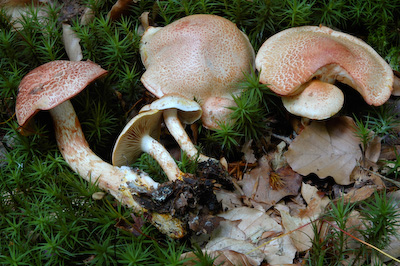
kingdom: Fungi
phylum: Basidiomycota
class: Agaricomycetes
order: Agaricales
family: Cortinariaceae
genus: Cortinarius
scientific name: Cortinarius bolaris
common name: cinnoberskællet slørhat
